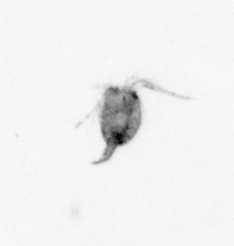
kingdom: Animalia
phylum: Arthropoda
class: Copepoda
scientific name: Copepoda
